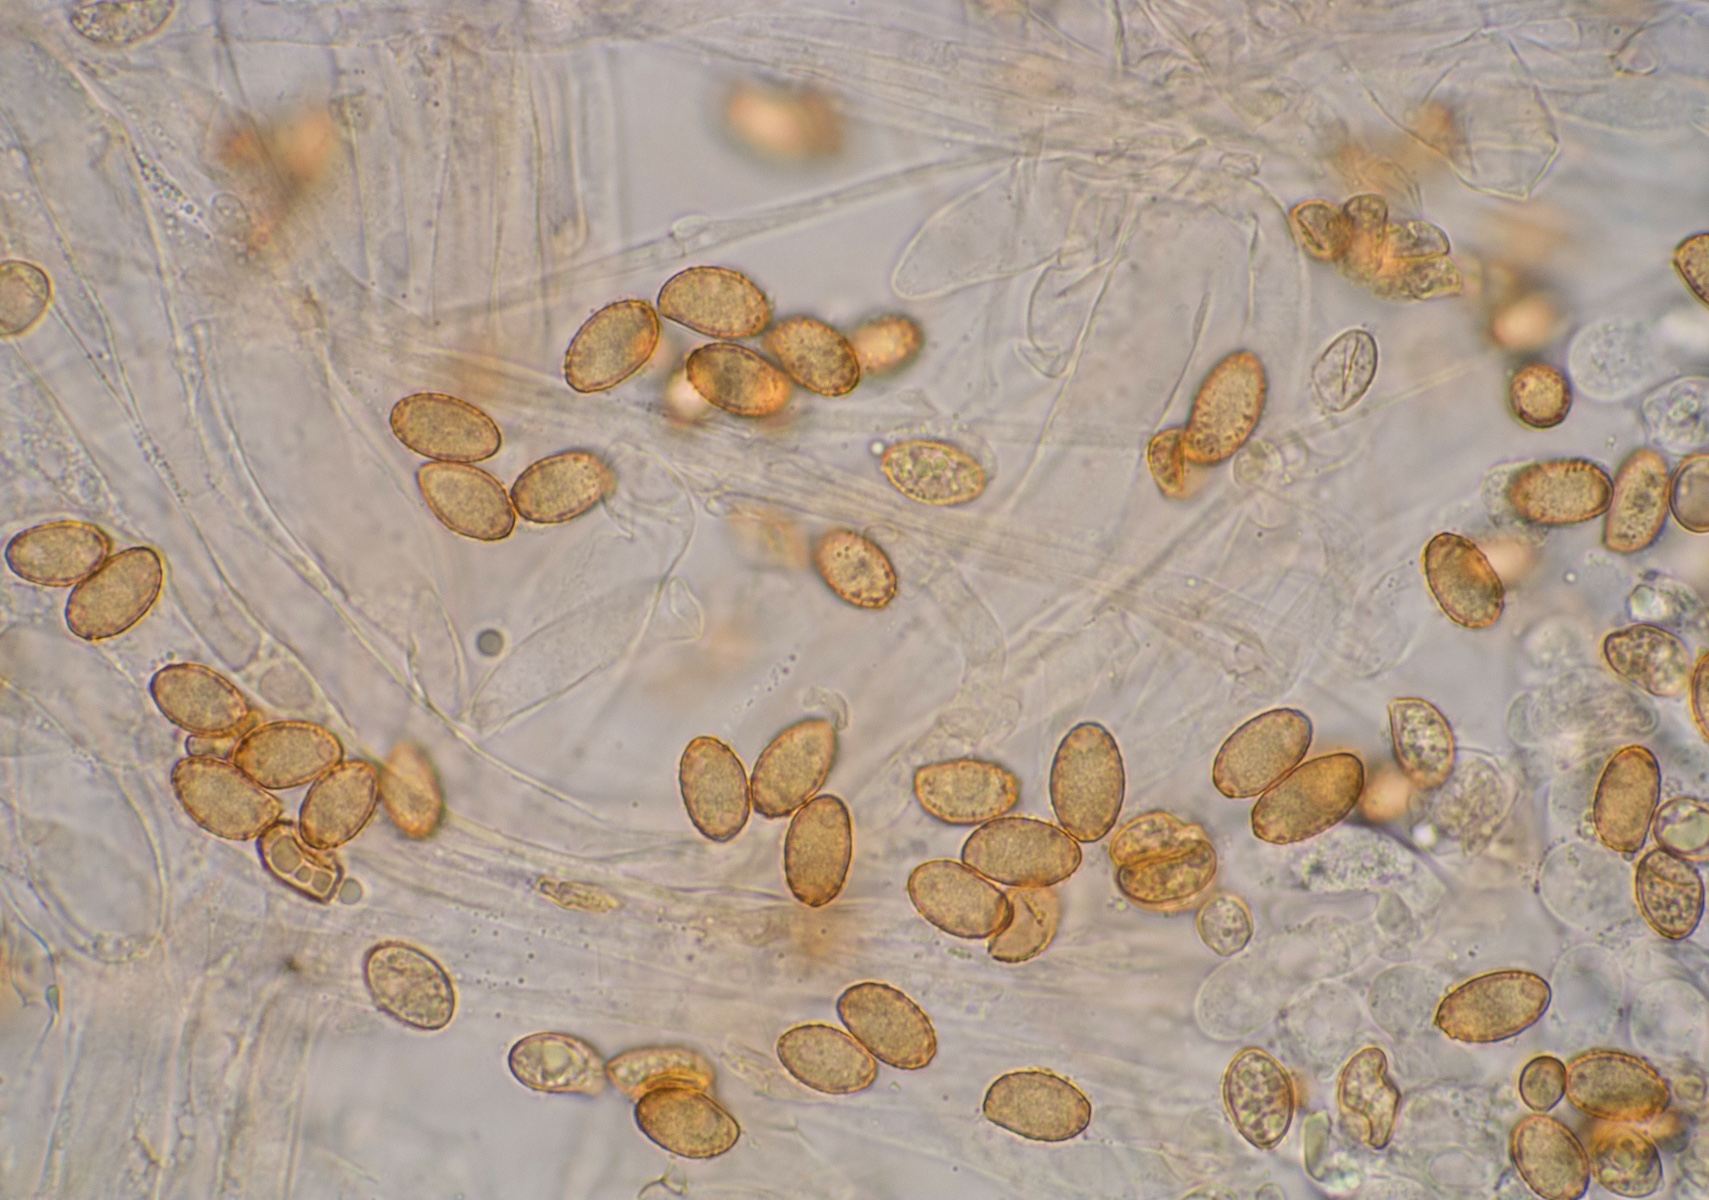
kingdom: Fungi
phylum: Basidiomycota
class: Agaricomycetes
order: Agaricales
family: Cortinariaceae
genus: Cortinarius
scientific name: Cortinarius hirtus
